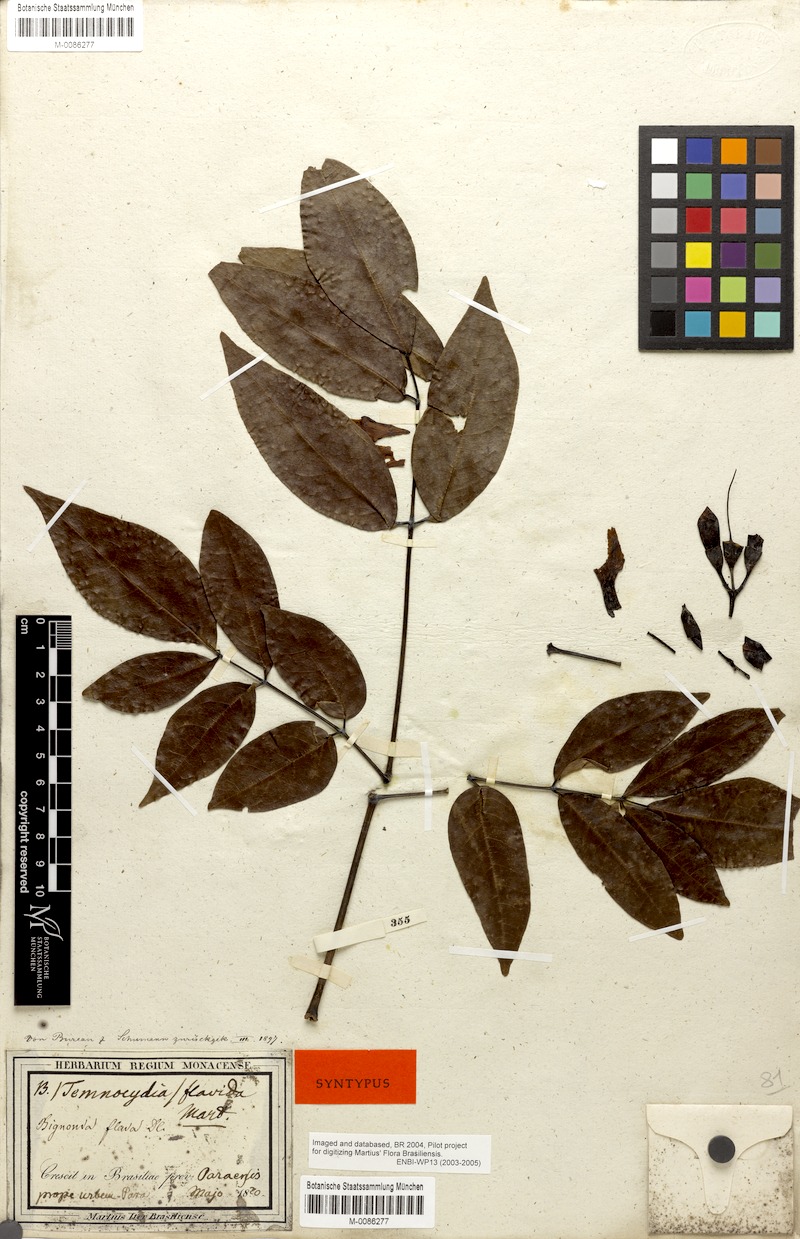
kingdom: Plantae
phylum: Tracheophyta
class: Magnoliopsida
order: Lamiales
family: Bignoniaceae
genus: Adenocalymma
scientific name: Adenocalymma neoflavidum
